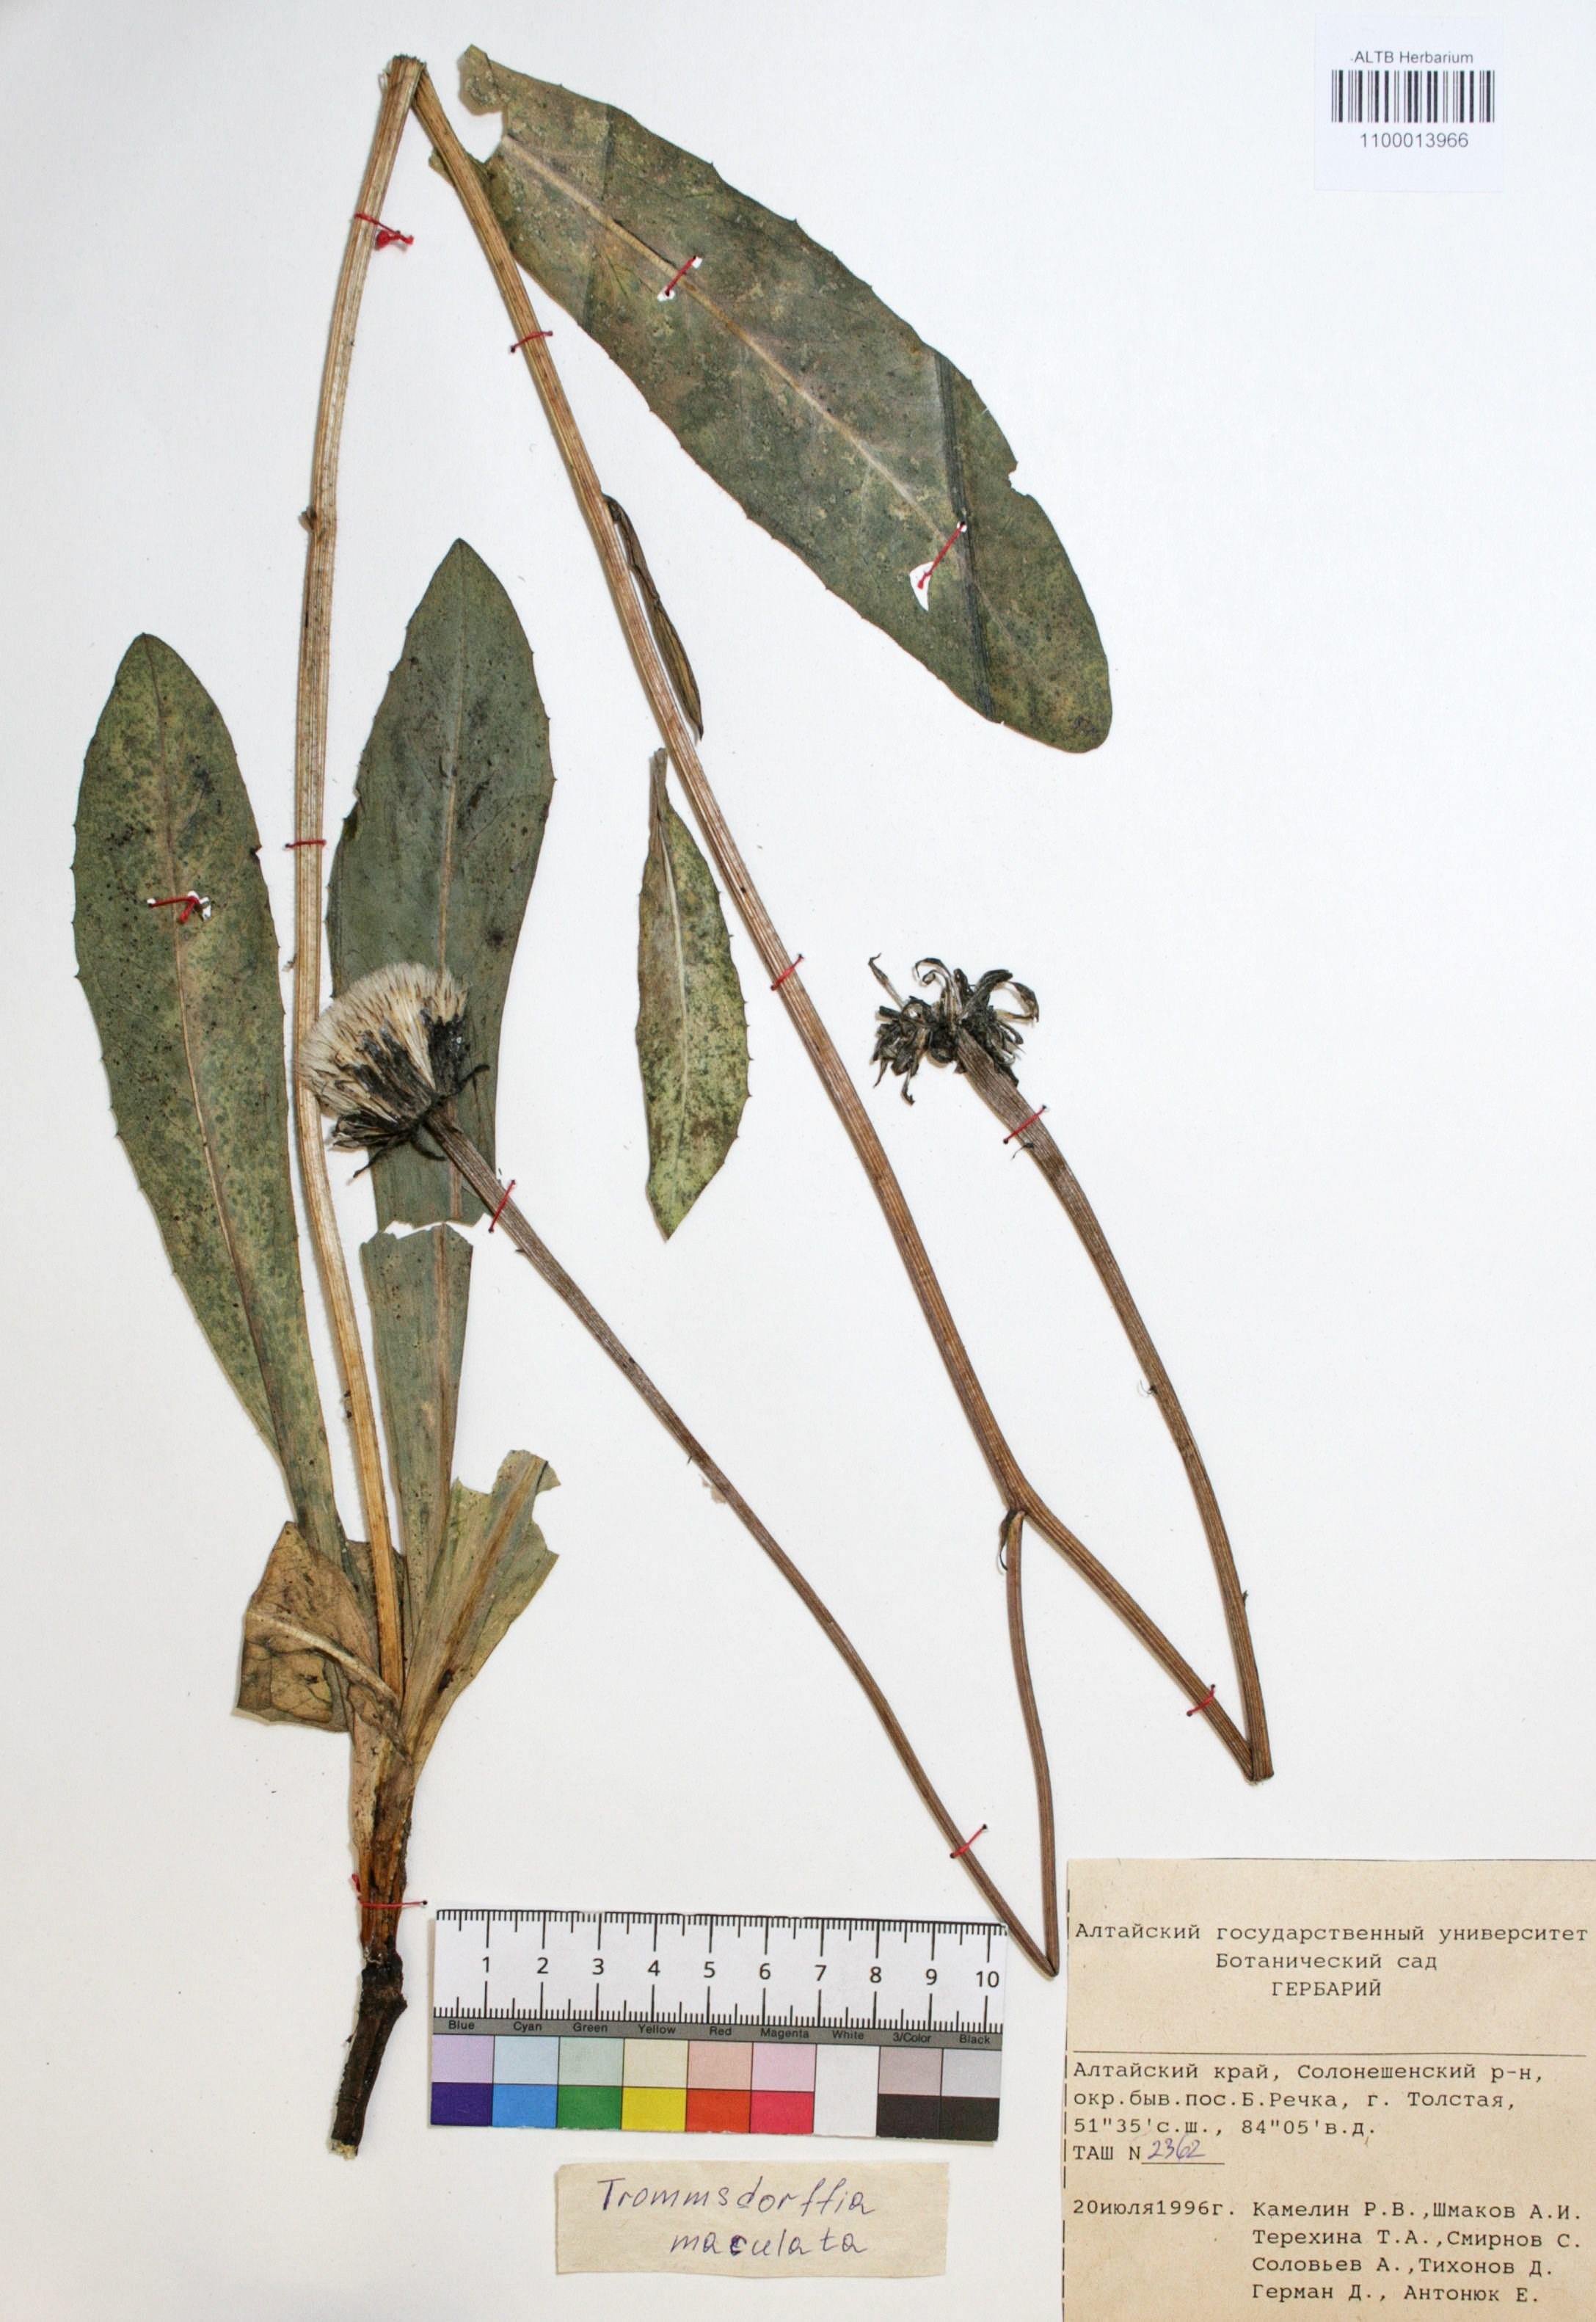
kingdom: Plantae
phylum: Tracheophyta
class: Magnoliopsida
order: Asterales
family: Asteraceae
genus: Trommsdorffia
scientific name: Trommsdorffia maculata
